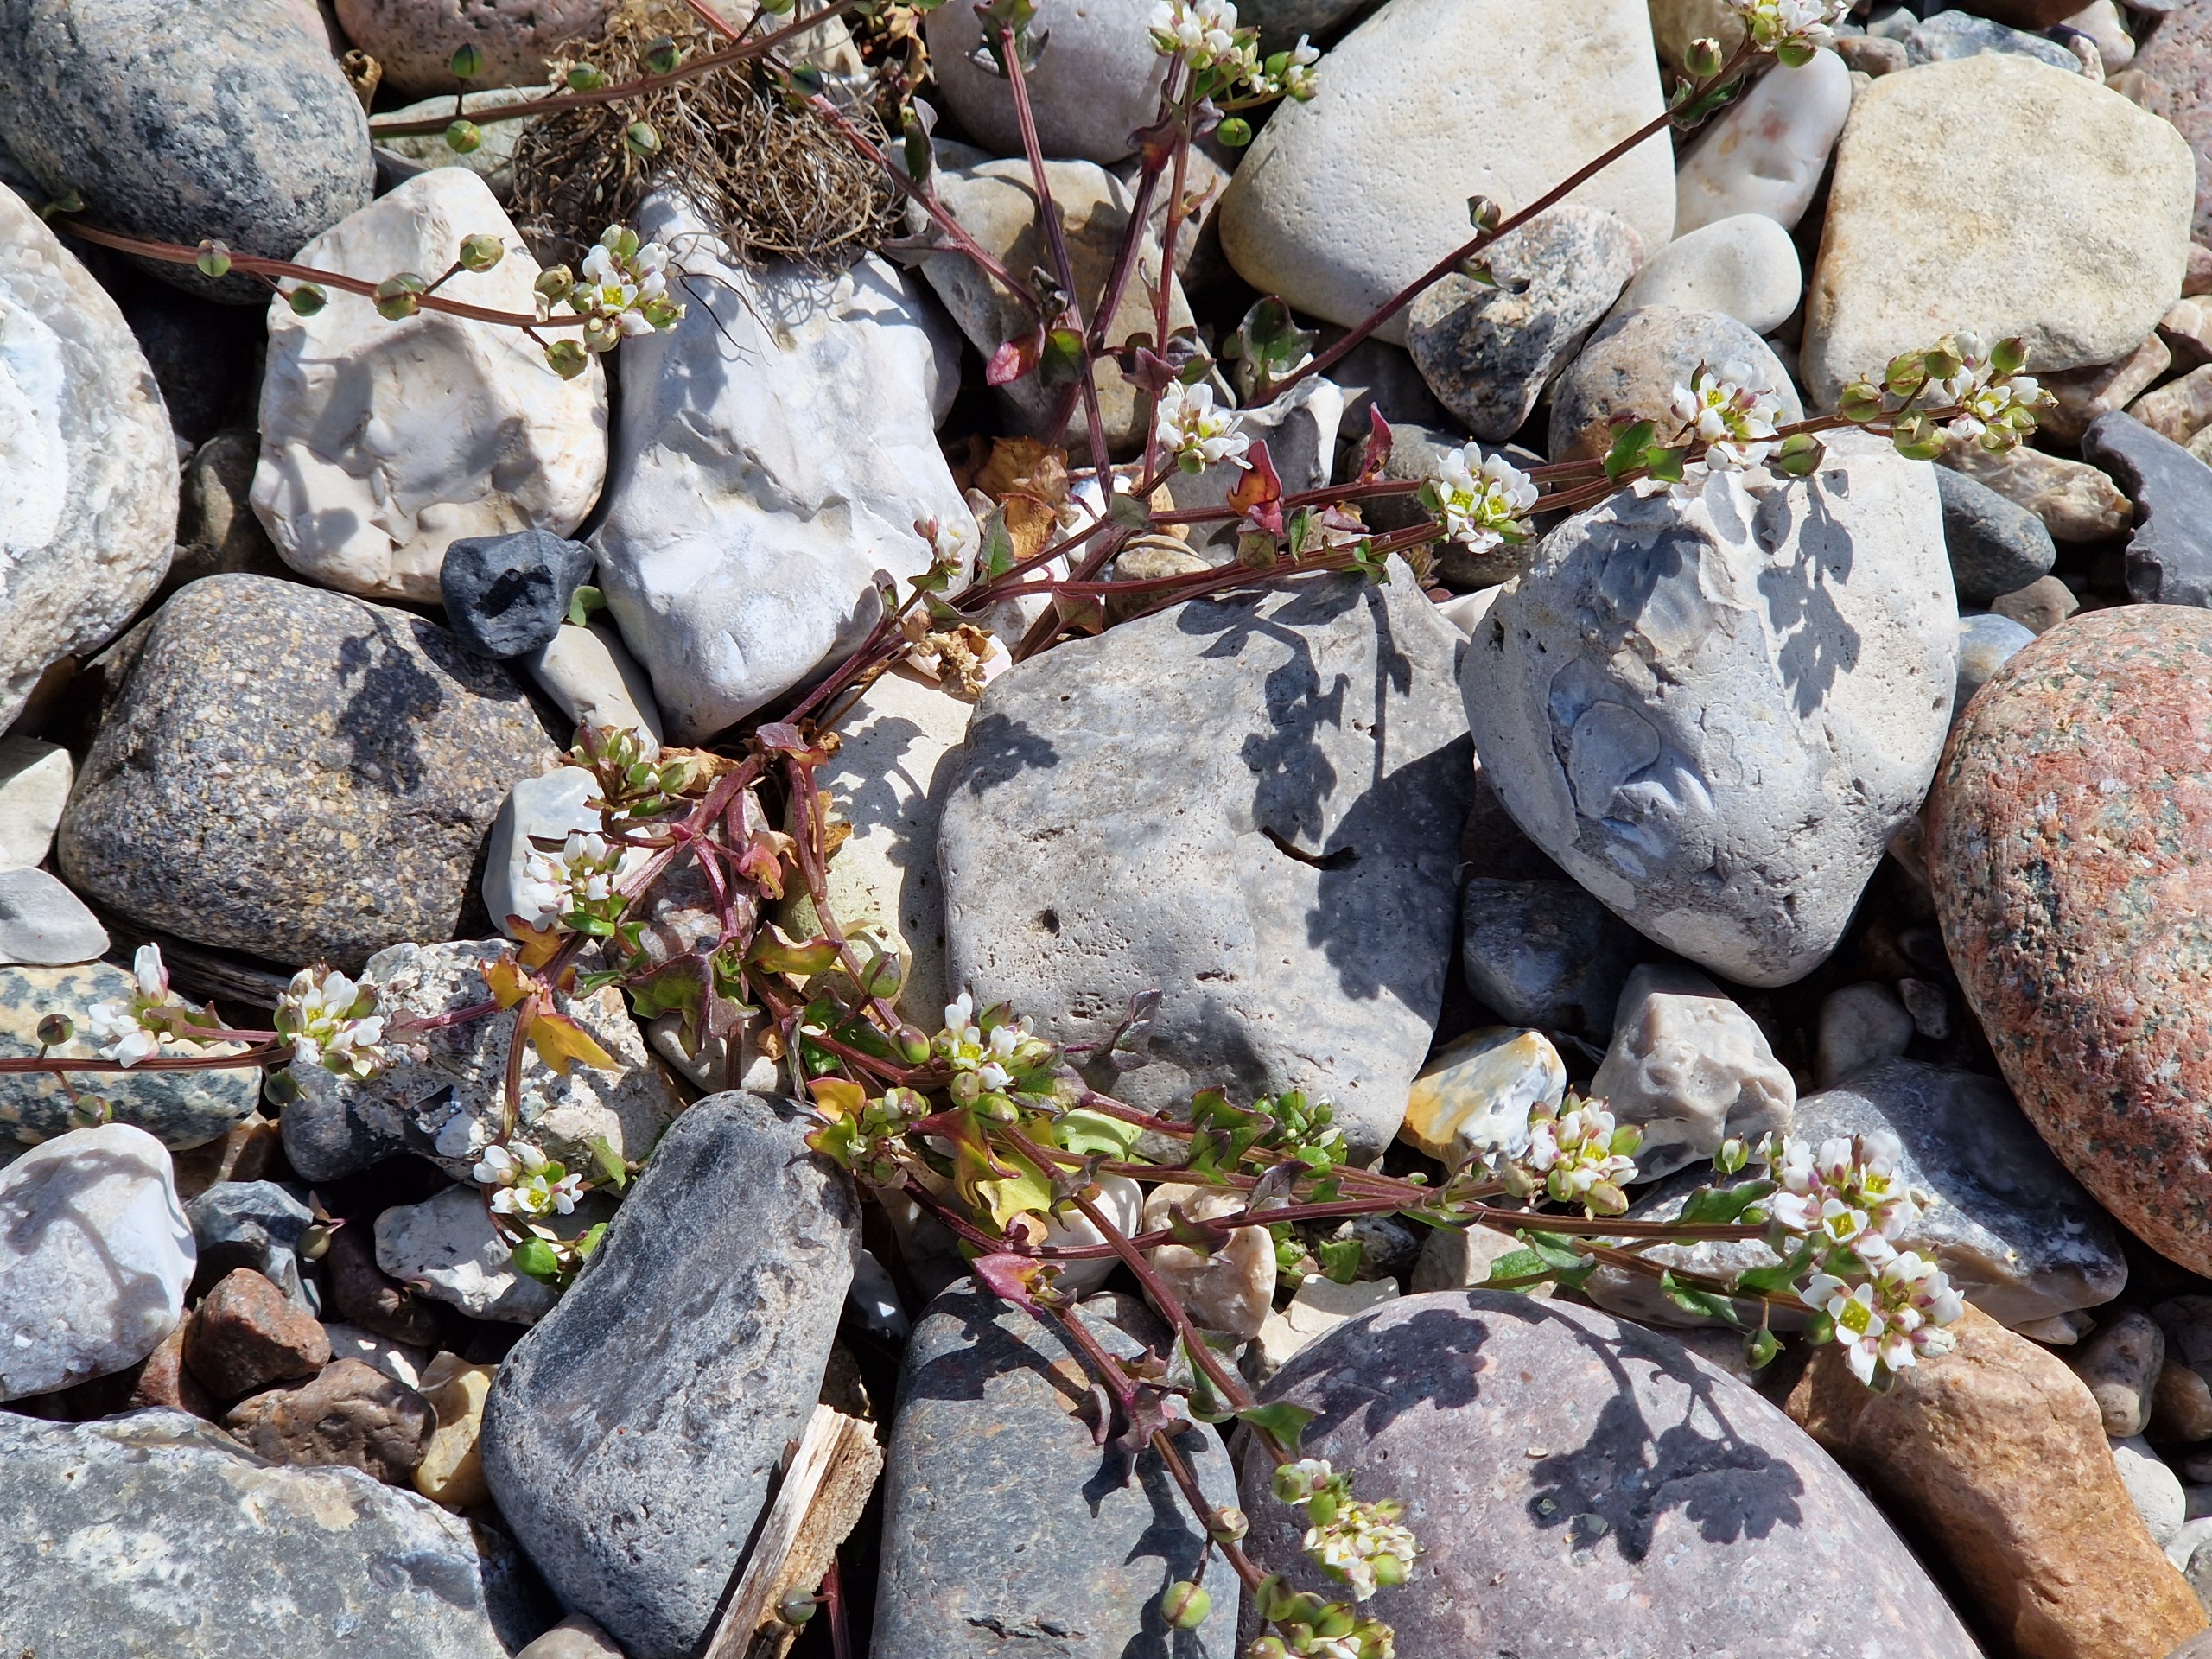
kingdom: Plantae
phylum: Tracheophyta
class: Magnoliopsida
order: Brassicales
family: Brassicaceae
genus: Cochlearia
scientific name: Cochlearia danica
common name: Dansk kokleare
